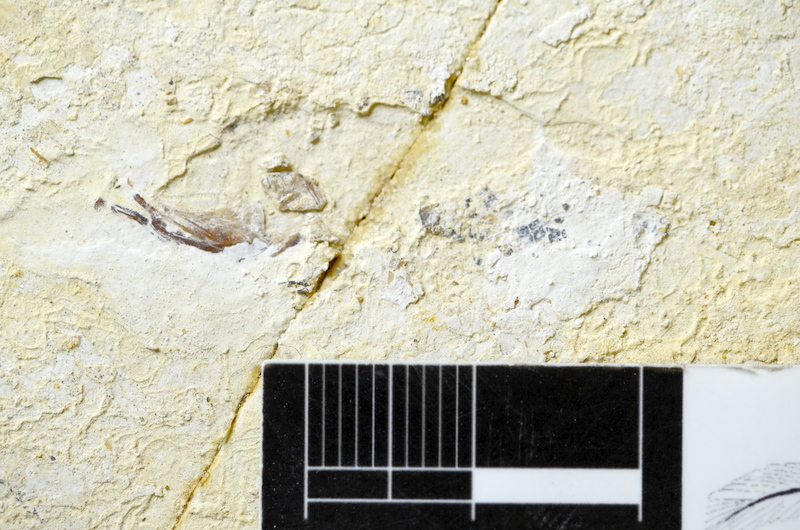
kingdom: Animalia
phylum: Chordata
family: Ascalaboidae
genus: Ebertichthys
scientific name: Ebertichthys ettlingensis
